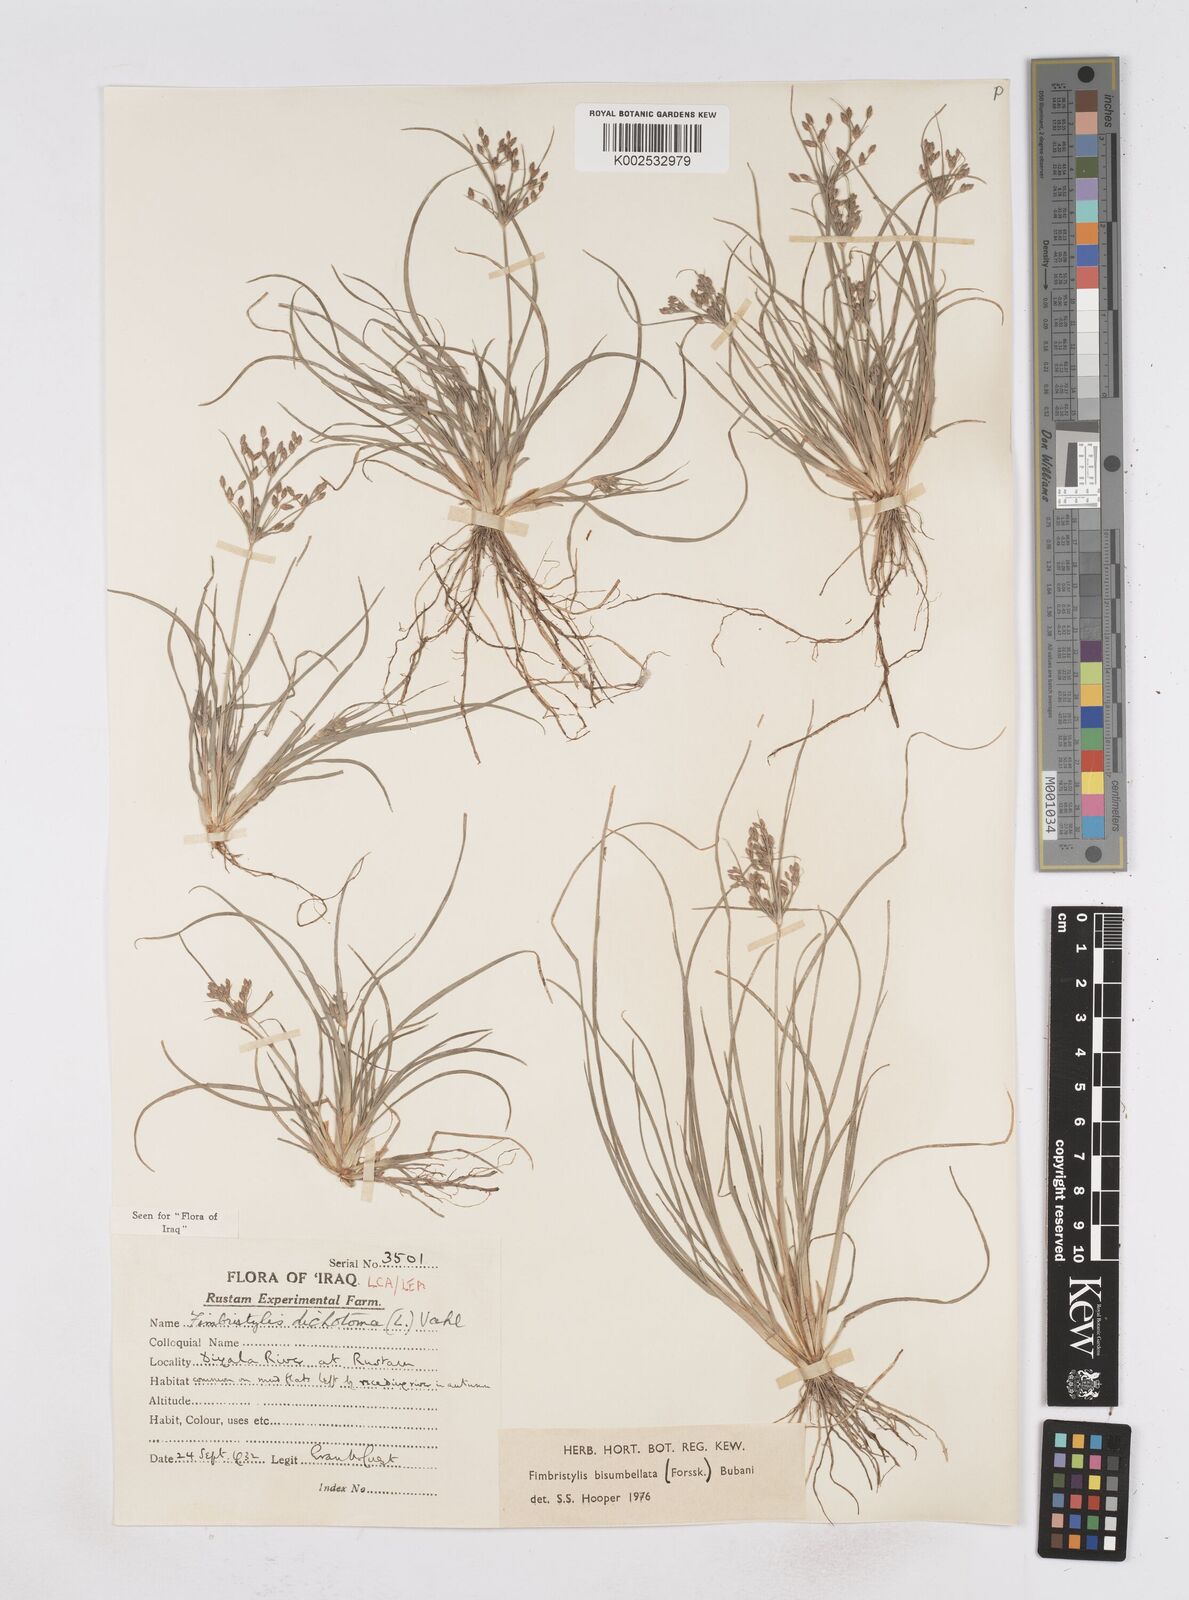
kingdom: Plantae
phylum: Tracheophyta
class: Liliopsida
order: Poales
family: Cyperaceae
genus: Fimbristylis
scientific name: Fimbristylis bisumbellata
